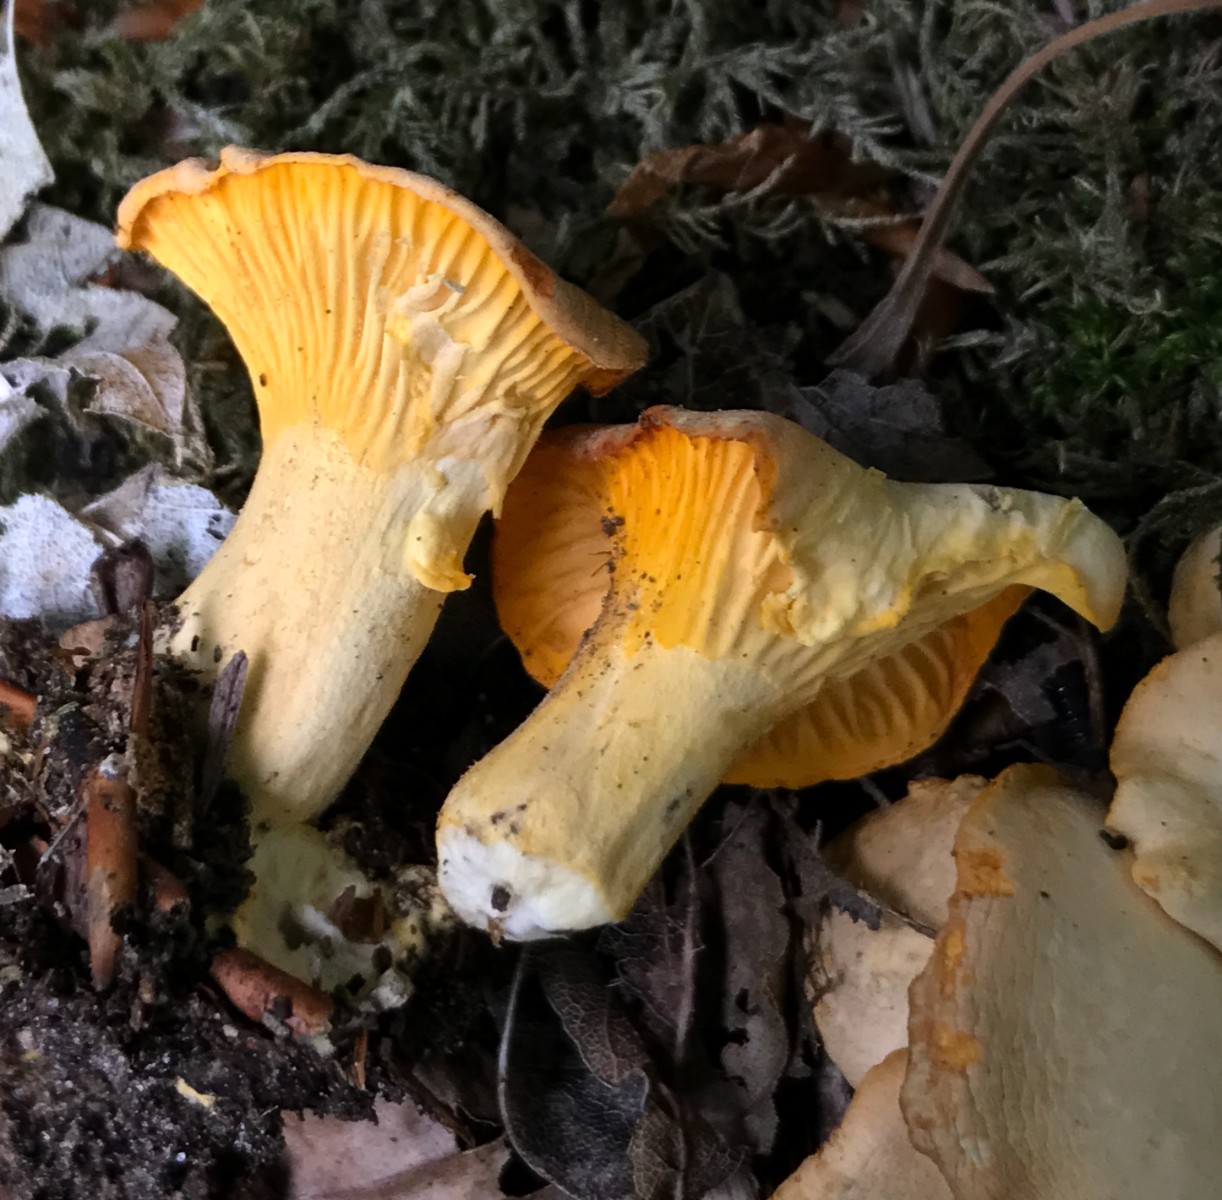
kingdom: Fungi
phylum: Basidiomycota
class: Agaricomycetes
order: Cantharellales
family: Hydnaceae
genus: Cantharellus
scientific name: Cantharellus pallens
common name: bleg kantarel
